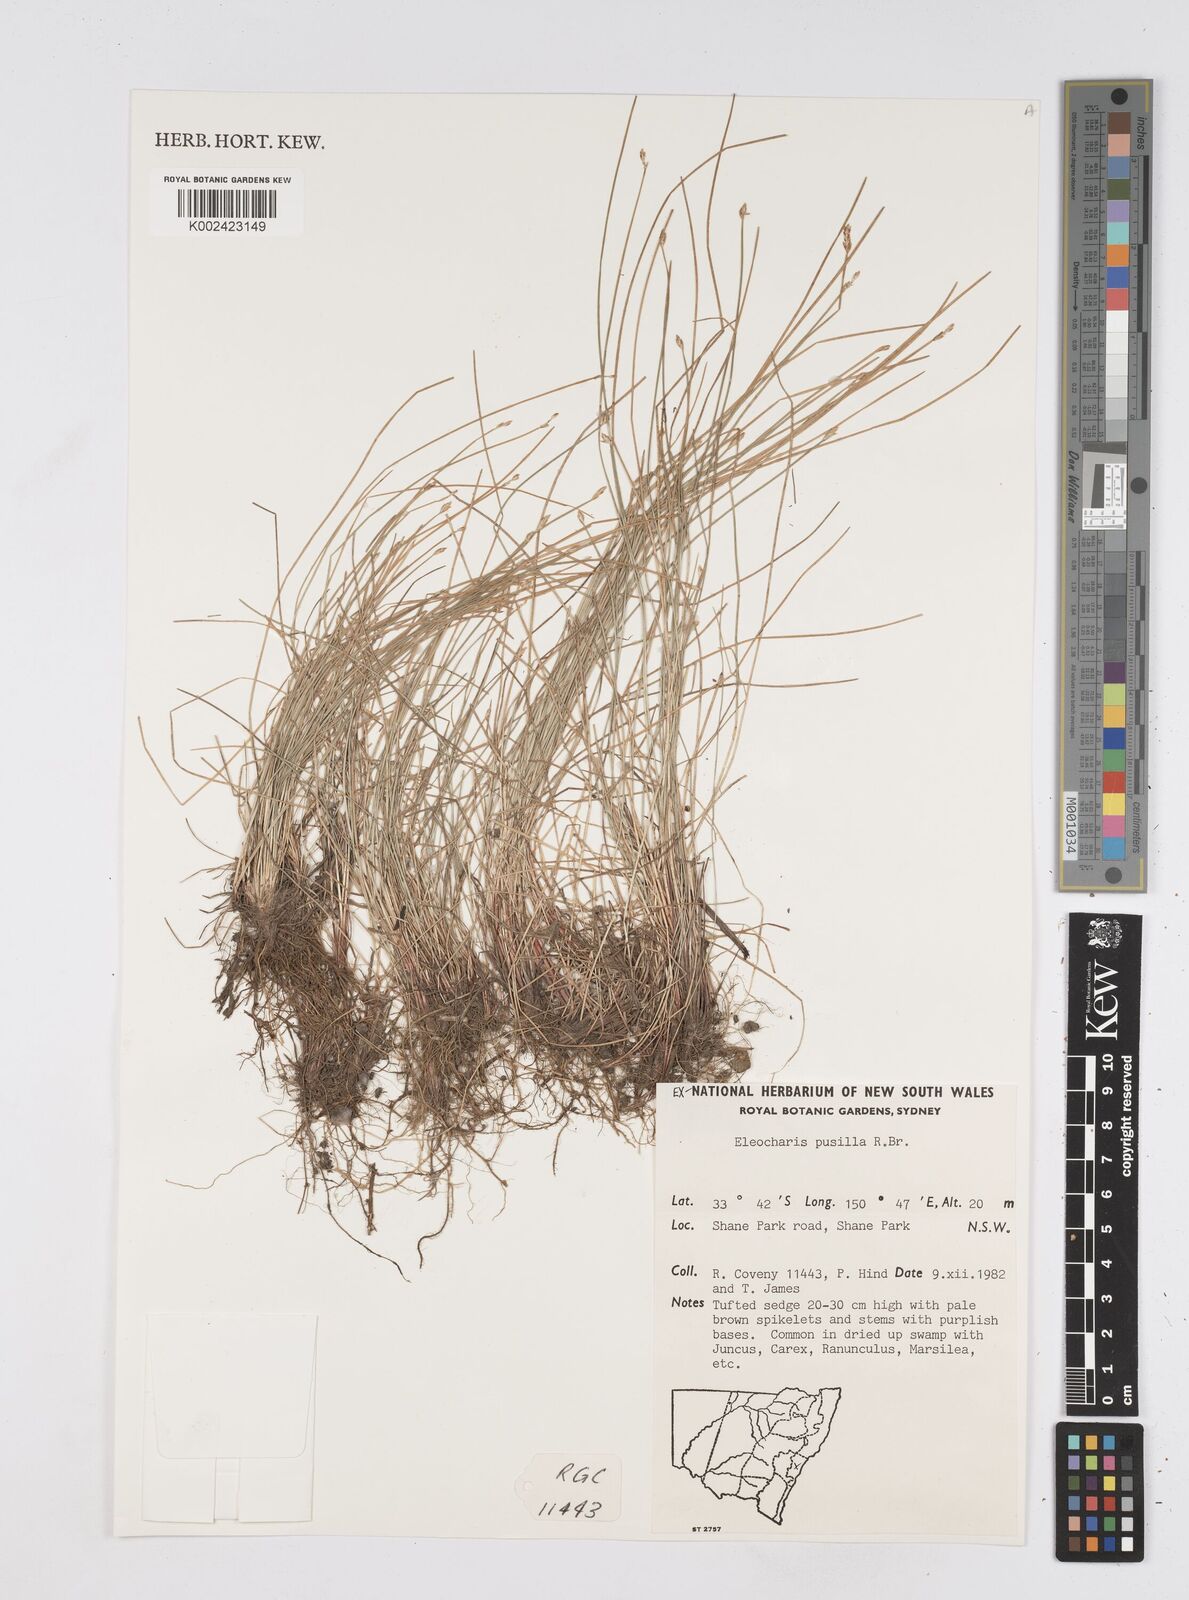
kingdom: Plantae
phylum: Tracheophyta
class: Liliopsida
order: Poales
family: Cyperaceae
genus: Eleocharis
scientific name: Eleocharis pusilla
